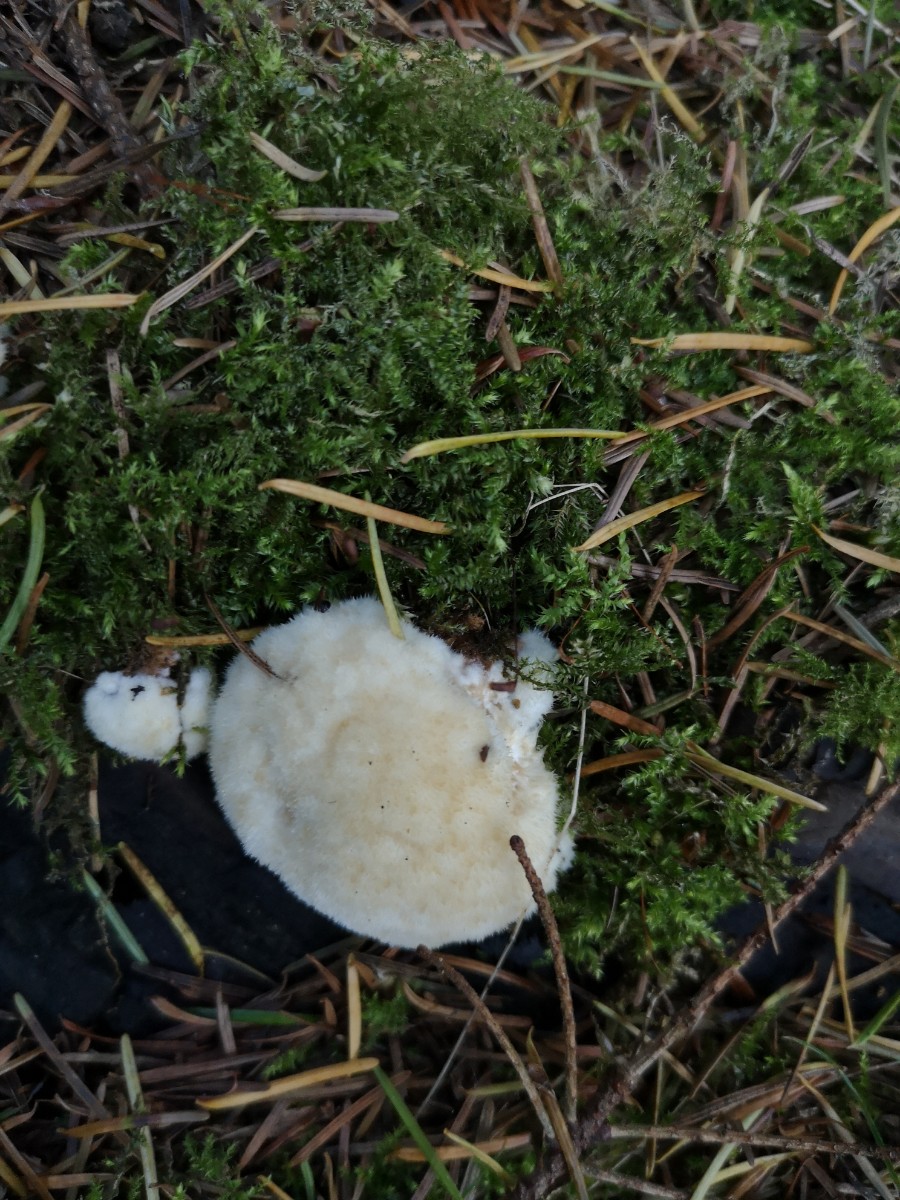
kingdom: Fungi
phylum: Basidiomycota
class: Agaricomycetes
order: Polyporales
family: Dacryobolaceae
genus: Postia
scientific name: Postia ptychogaster
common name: støvende kødporesvamp
